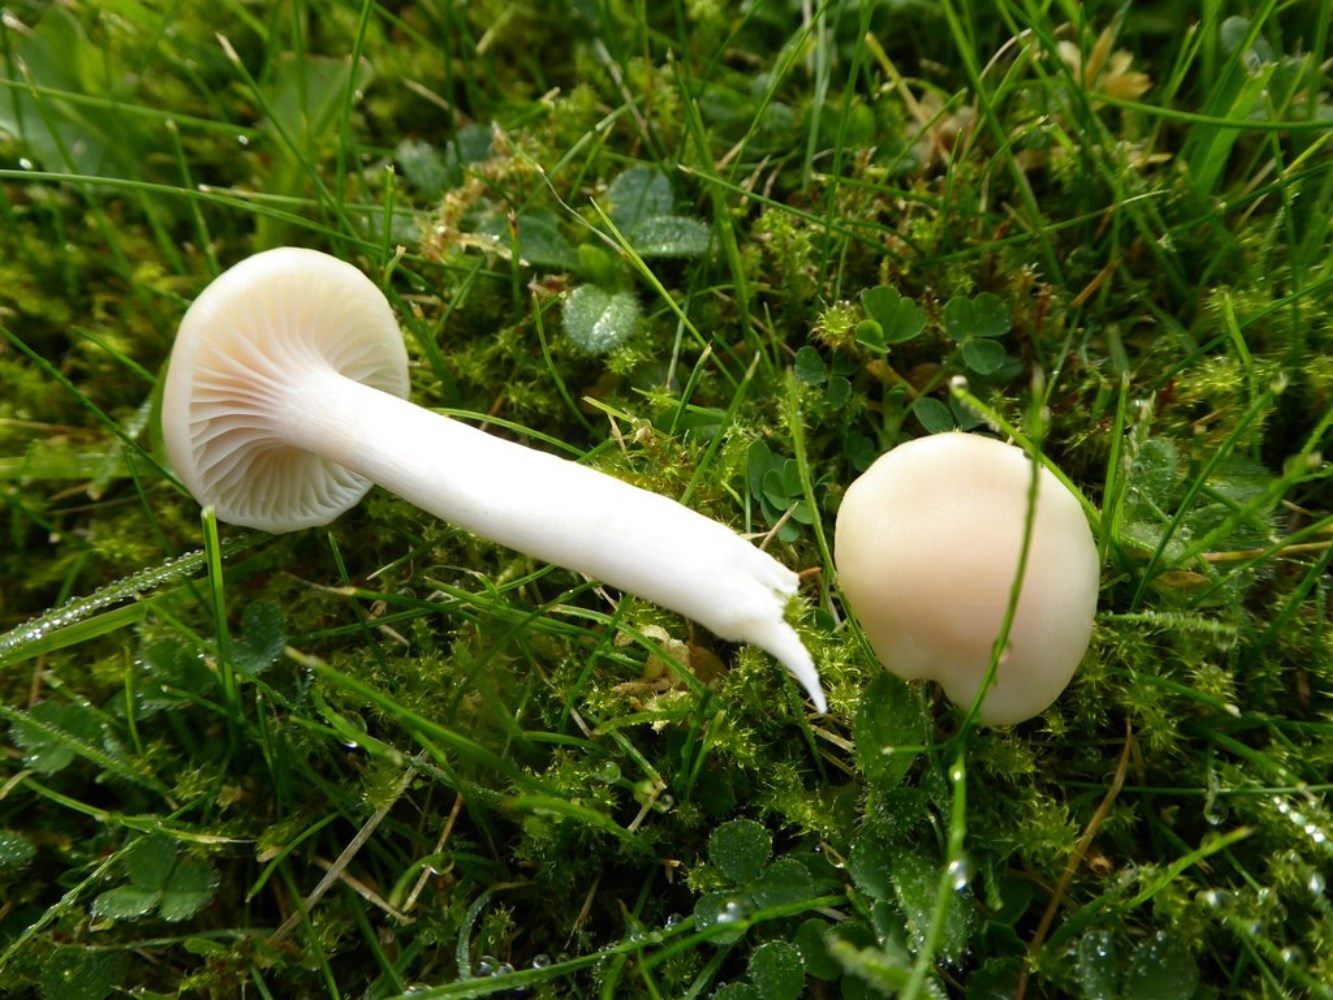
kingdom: Fungi
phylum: Basidiomycota
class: Agaricomycetes
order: Agaricales
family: Hygrophoraceae
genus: Cuphophyllus
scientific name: Cuphophyllus virgineus
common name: snehvid vokshat
